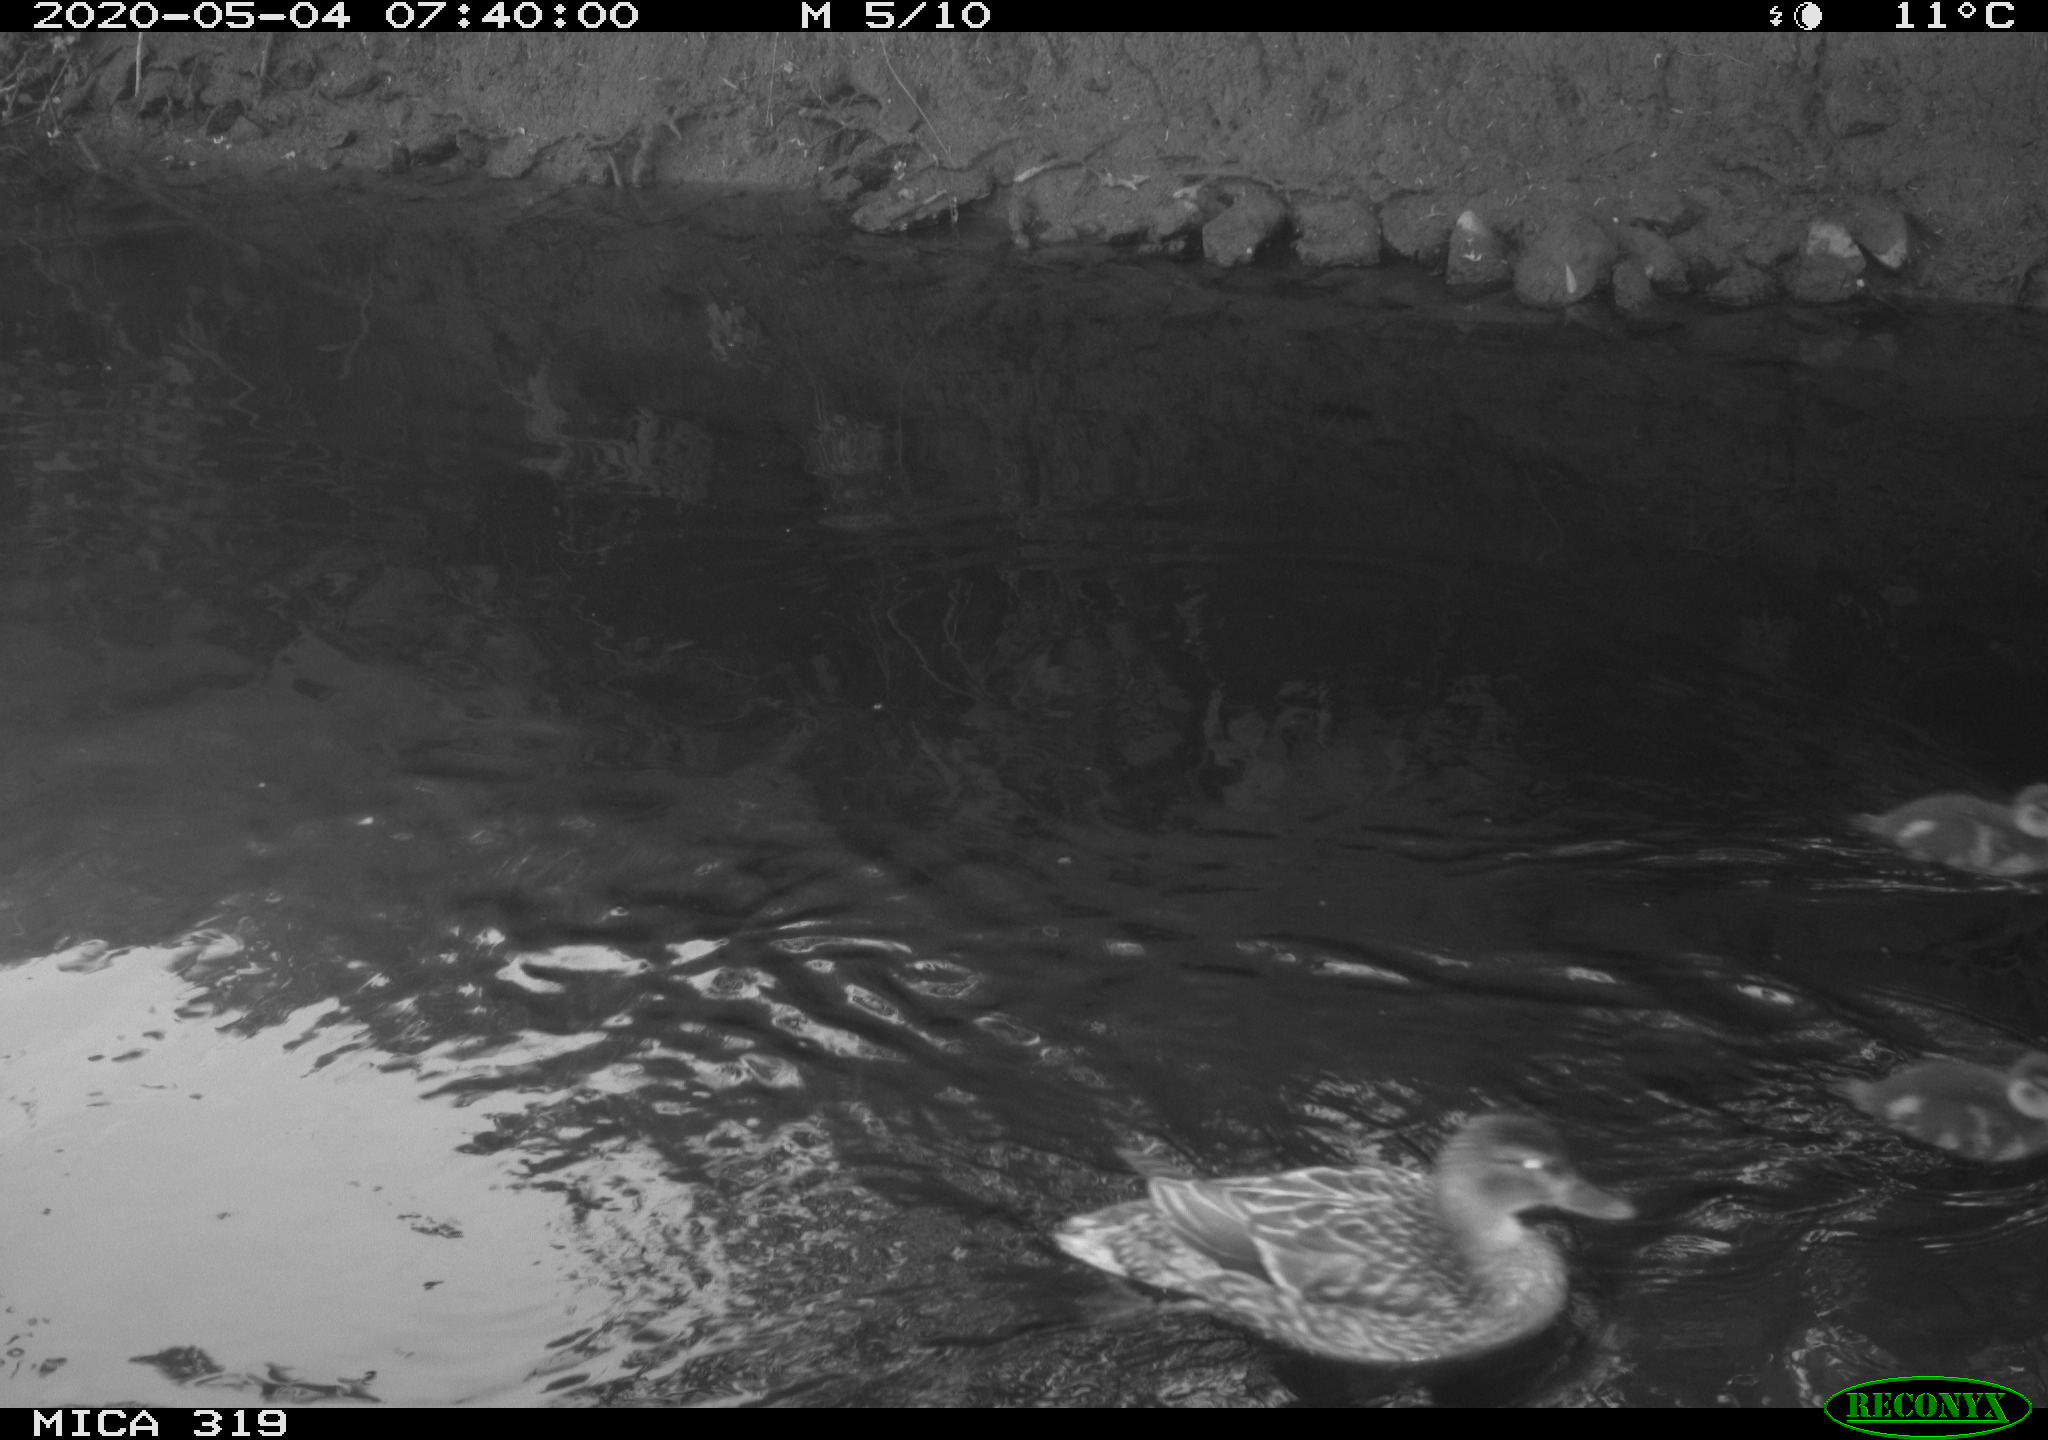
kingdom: Animalia
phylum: Chordata
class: Aves
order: Anseriformes
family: Anatidae
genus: Anas
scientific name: Anas platyrhynchos
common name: Mallard
